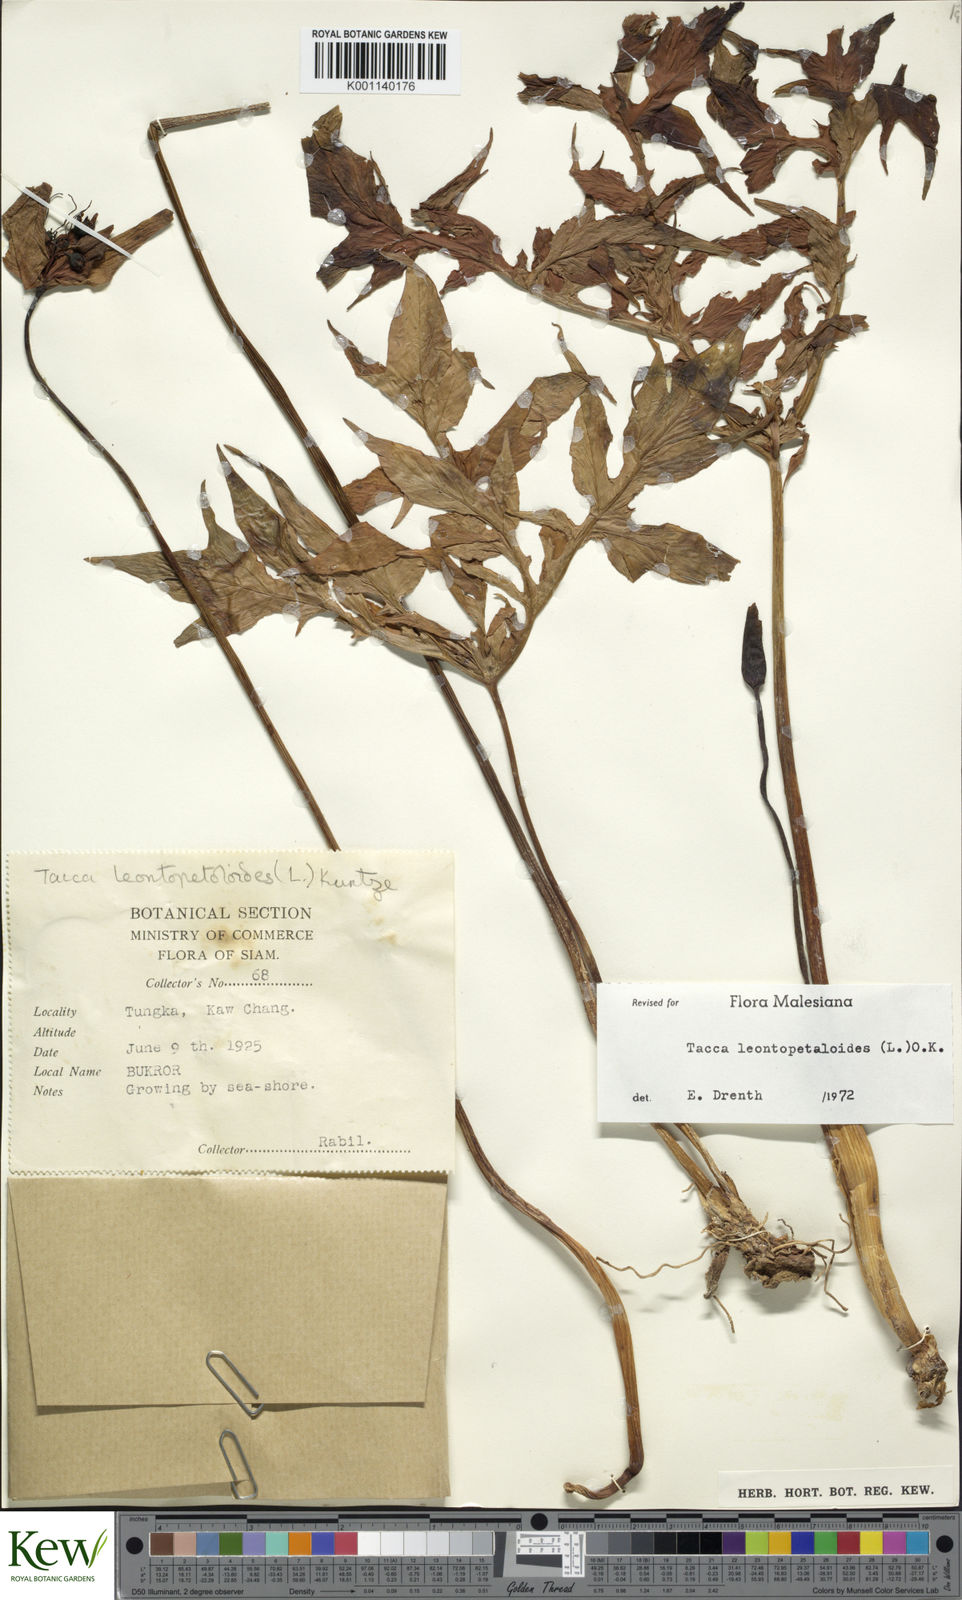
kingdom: Plantae
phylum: Tracheophyta
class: Liliopsida
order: Dioscoreales
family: Dioscoreaceae
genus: Tacca
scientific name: Tacca leontopetaloides
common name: Arrowroot
